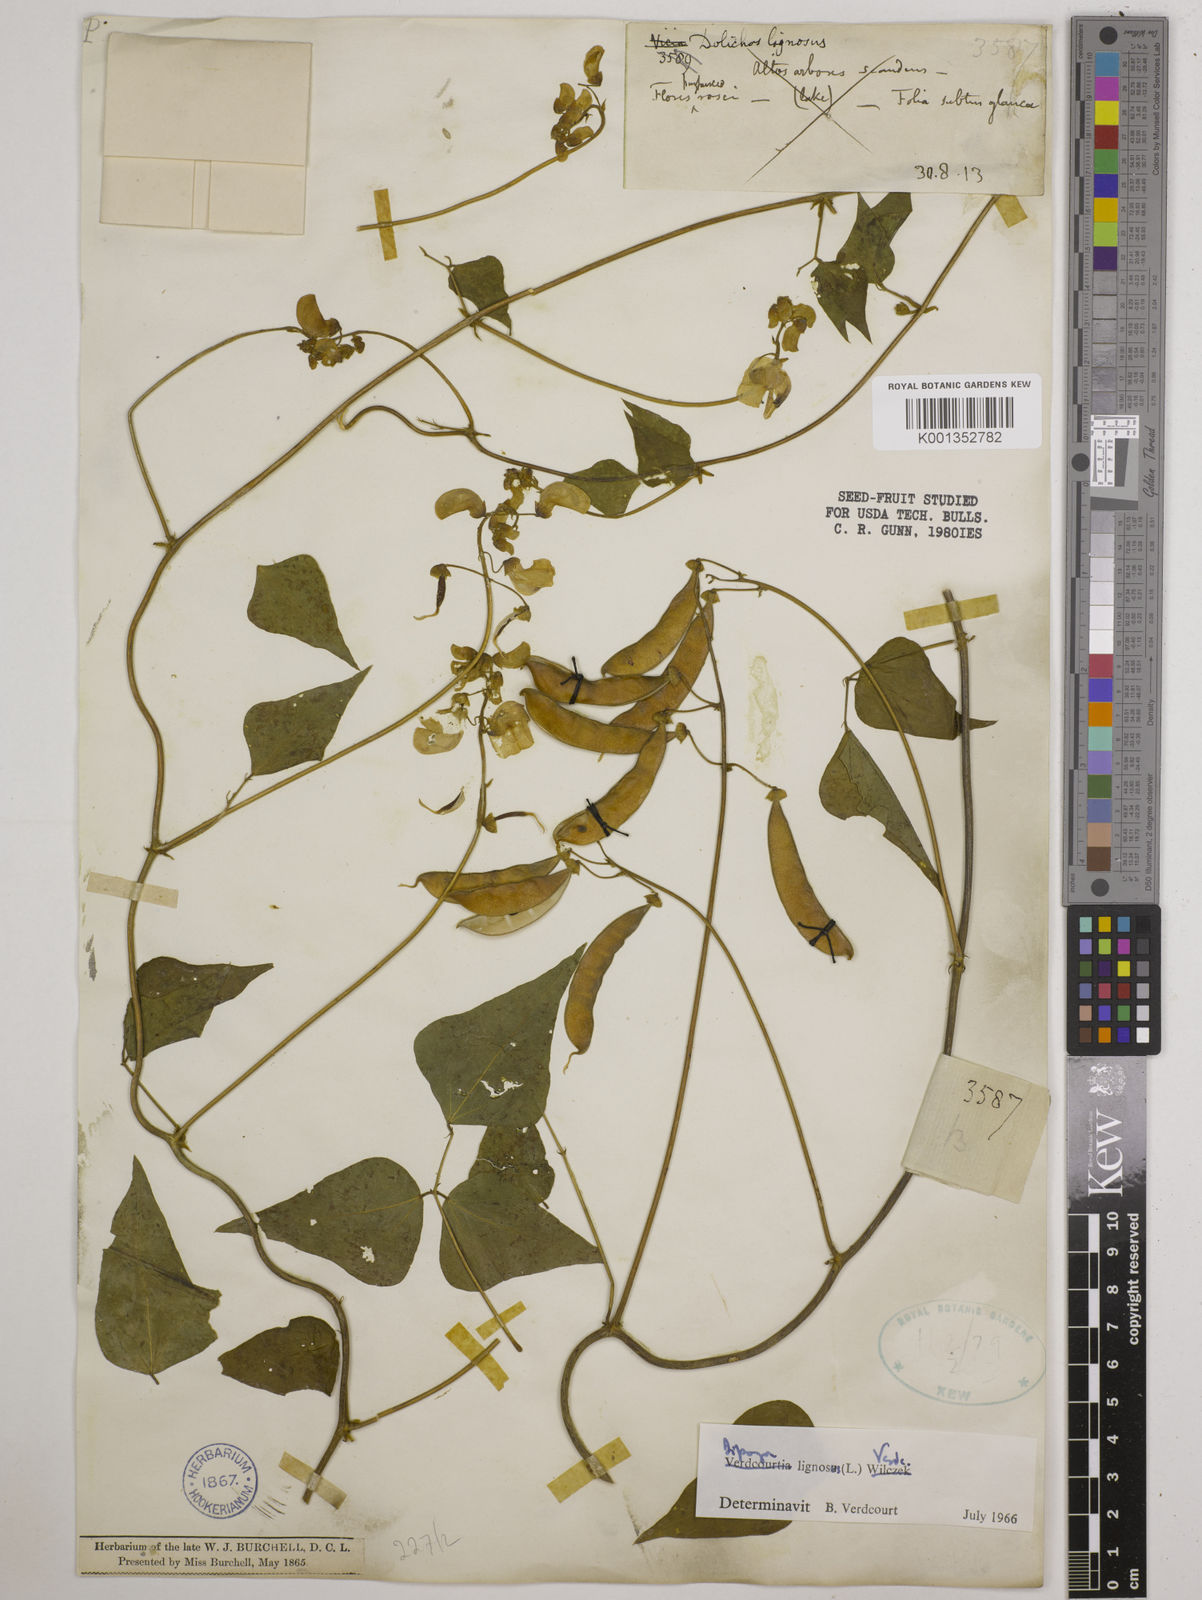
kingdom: Plantae
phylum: Tracheophyta
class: Magnoliopsida
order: Fabales
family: Fabaceae
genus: Dipogon
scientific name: Dipogon lignosus
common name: Okie bean
